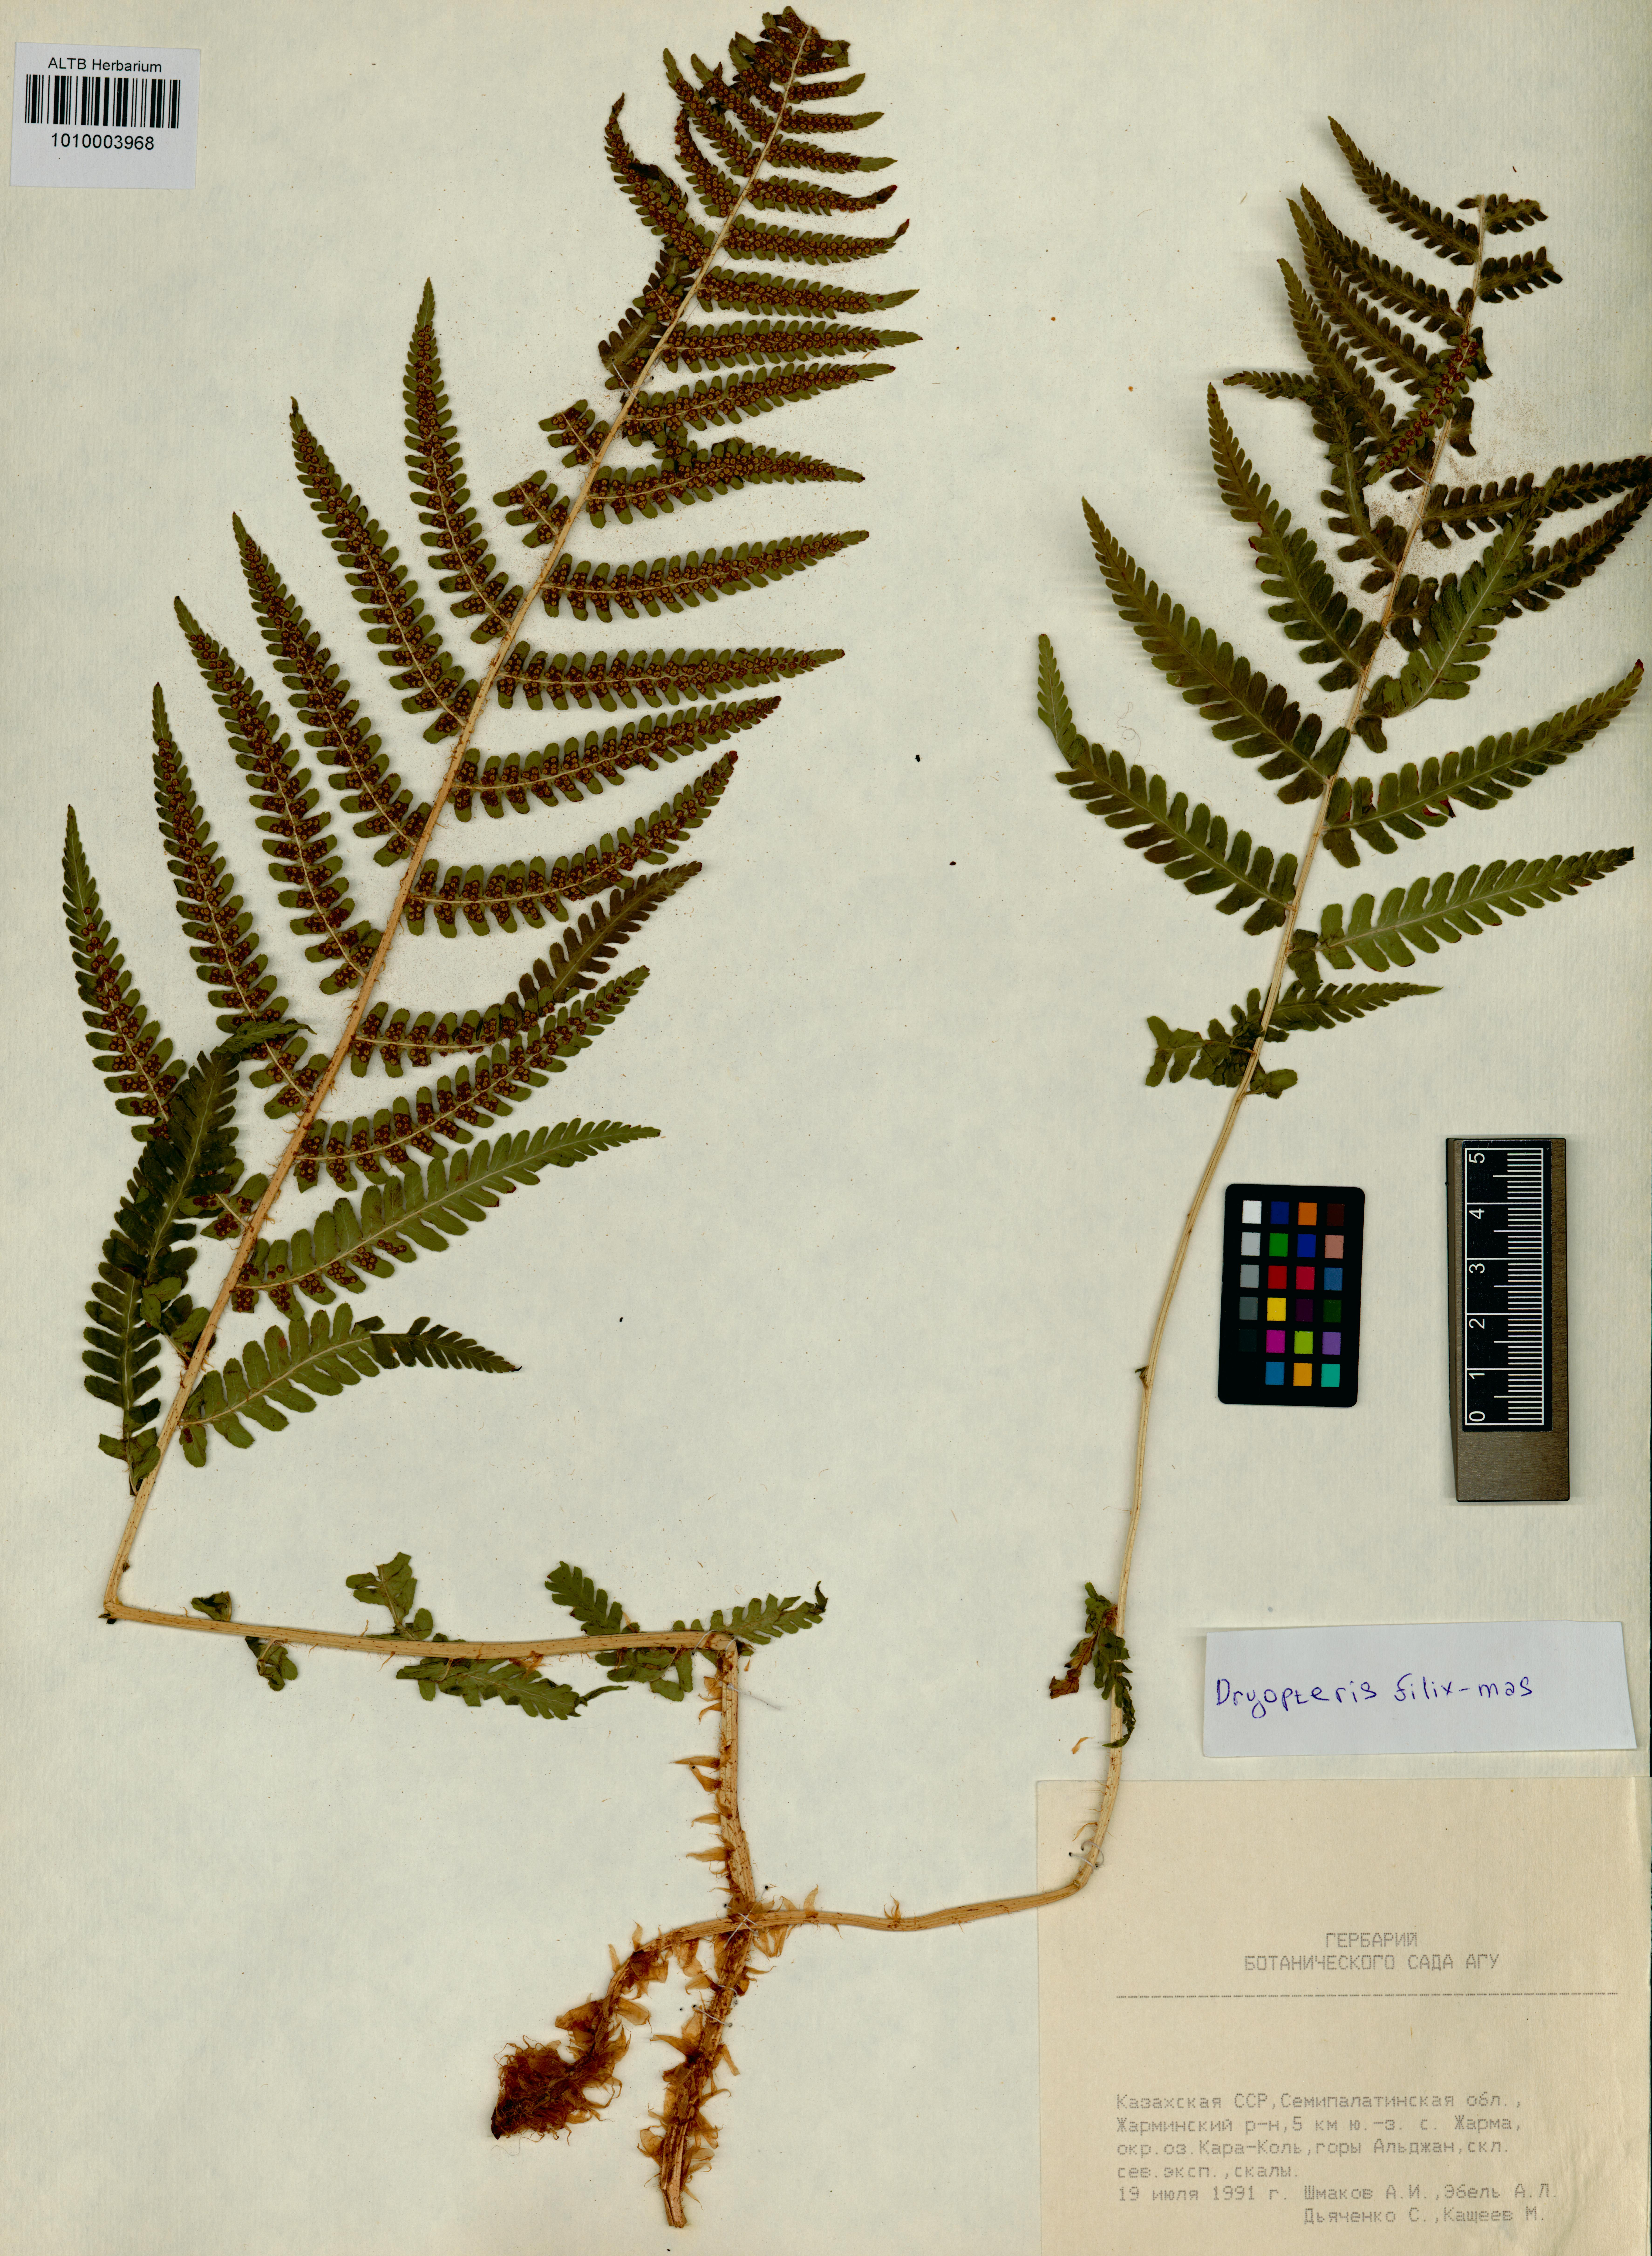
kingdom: Plantae
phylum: Tracheophyta
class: Polypodiopsida
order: Polypodiales
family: Dryopteridaceae
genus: Dryopteris
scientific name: Dryopteris filix-mas
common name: Male fern
